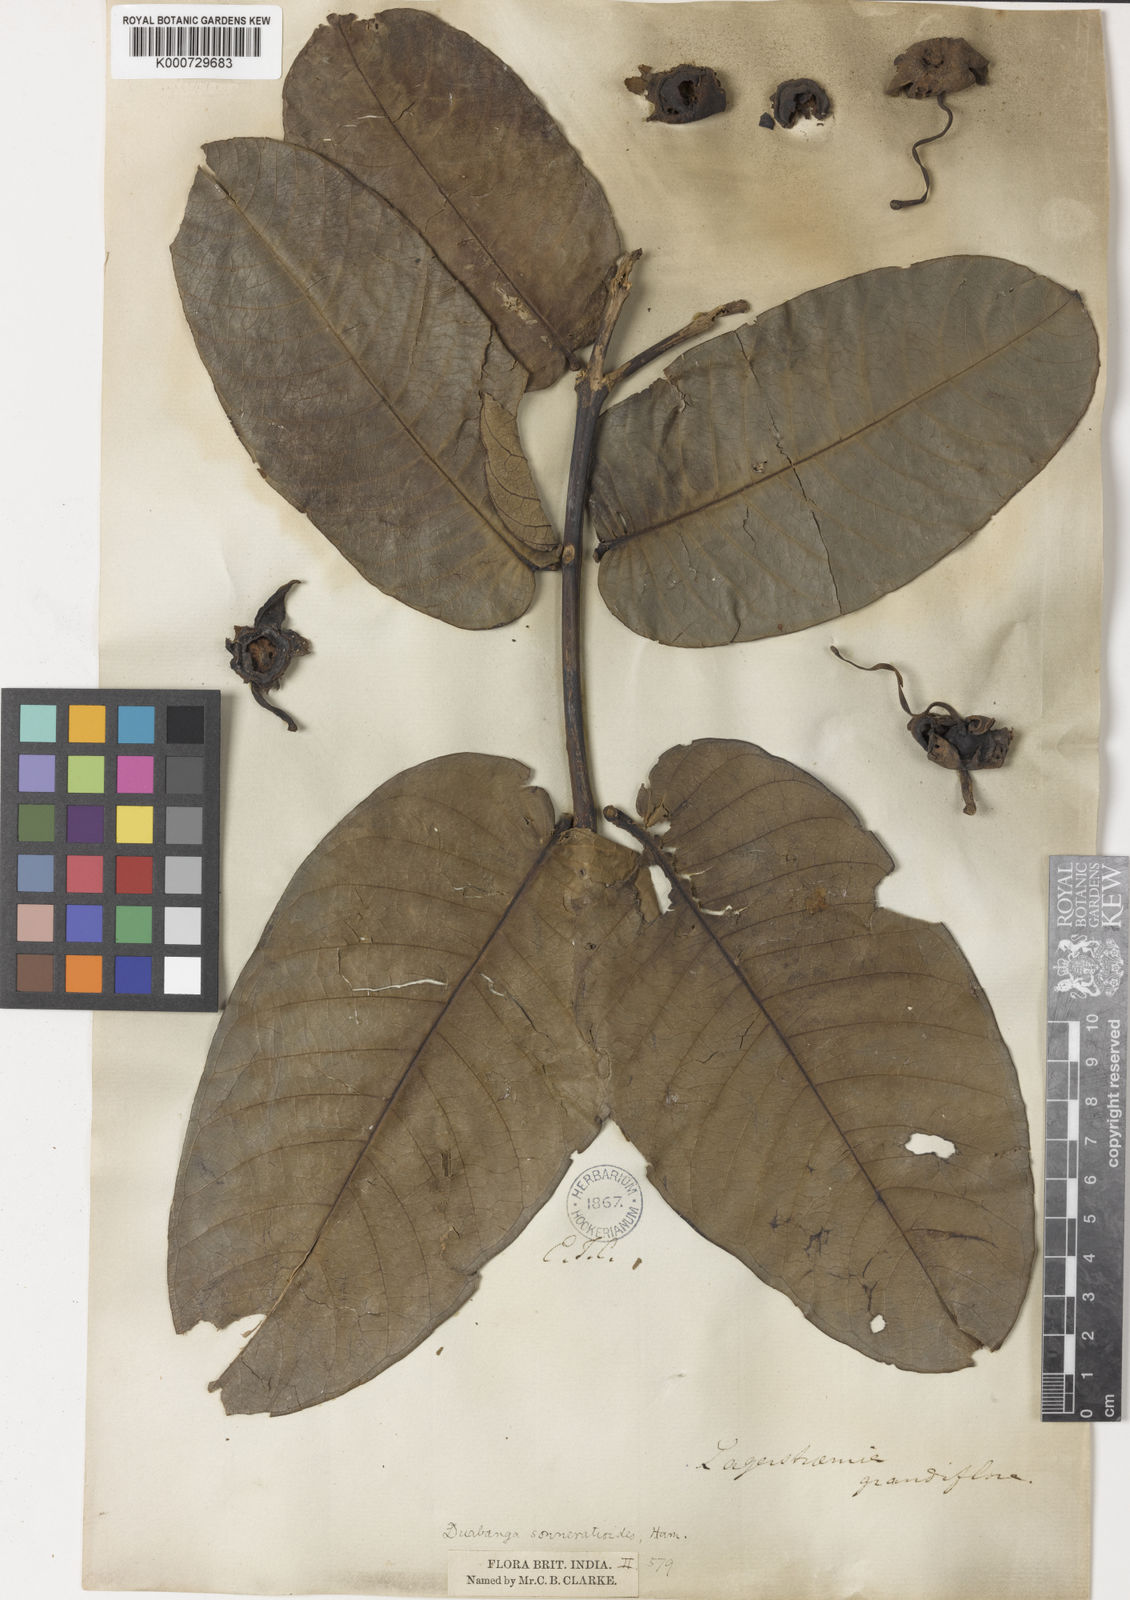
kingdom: Plantae
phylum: Tracheophyta
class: Magnoliopsida
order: Myrtales
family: Lythraceae
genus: Duabanga
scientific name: Duabanga grandiflora
